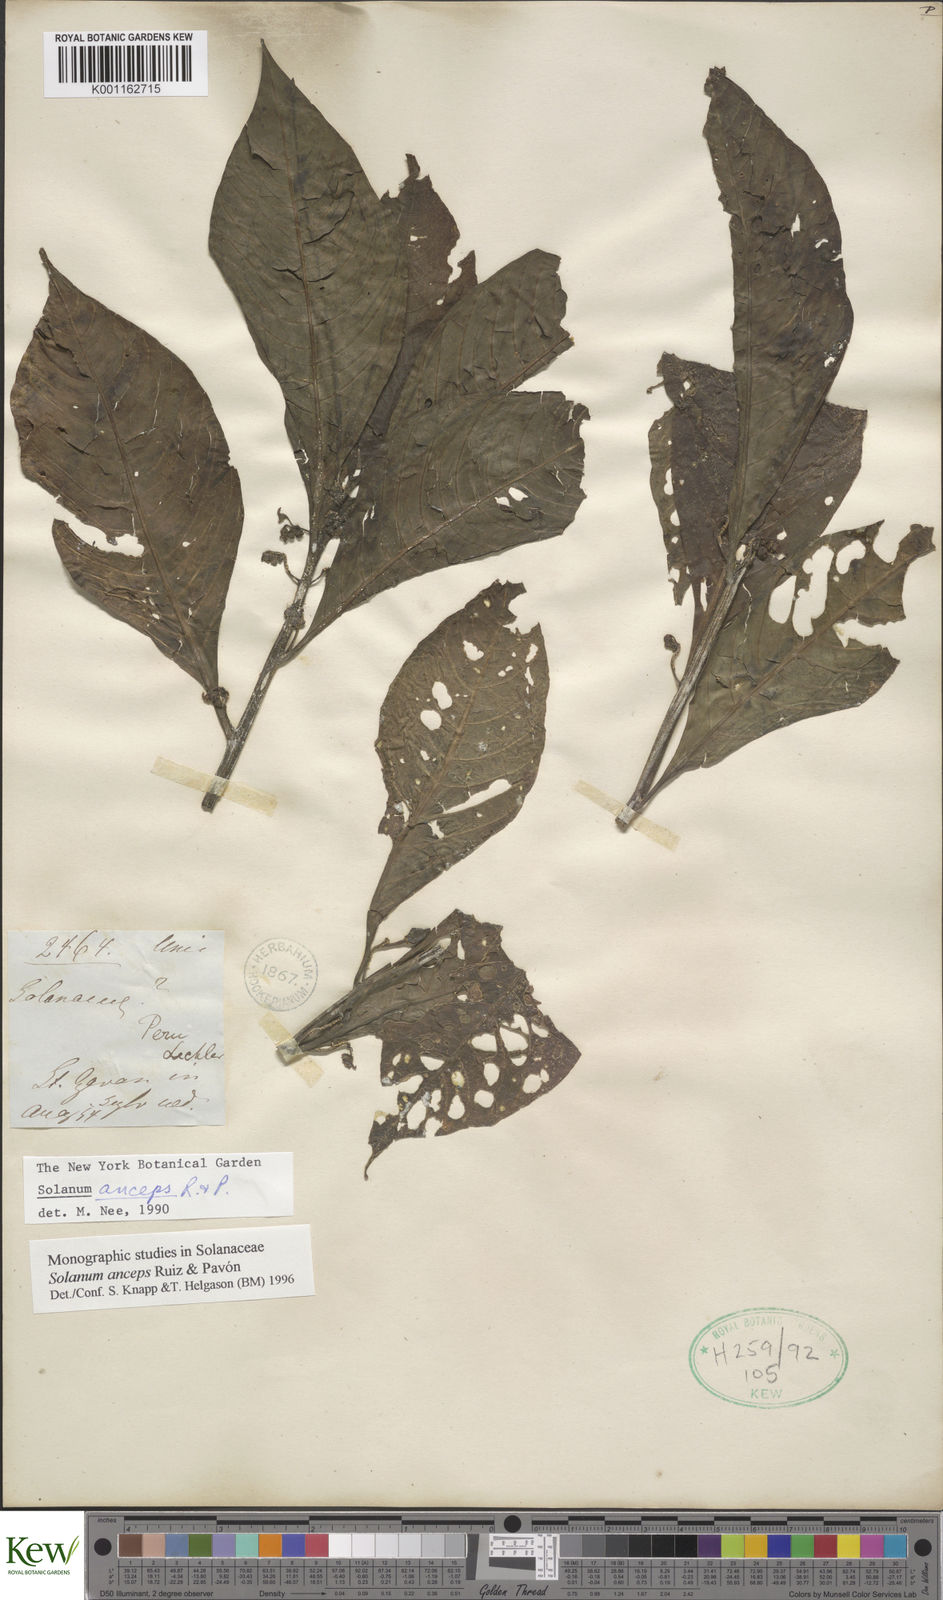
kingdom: Plantae
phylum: Tracheophyta
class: Magnoliopsida
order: Solanales
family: Solanaceae
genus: Solanum
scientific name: Solanum anceps
